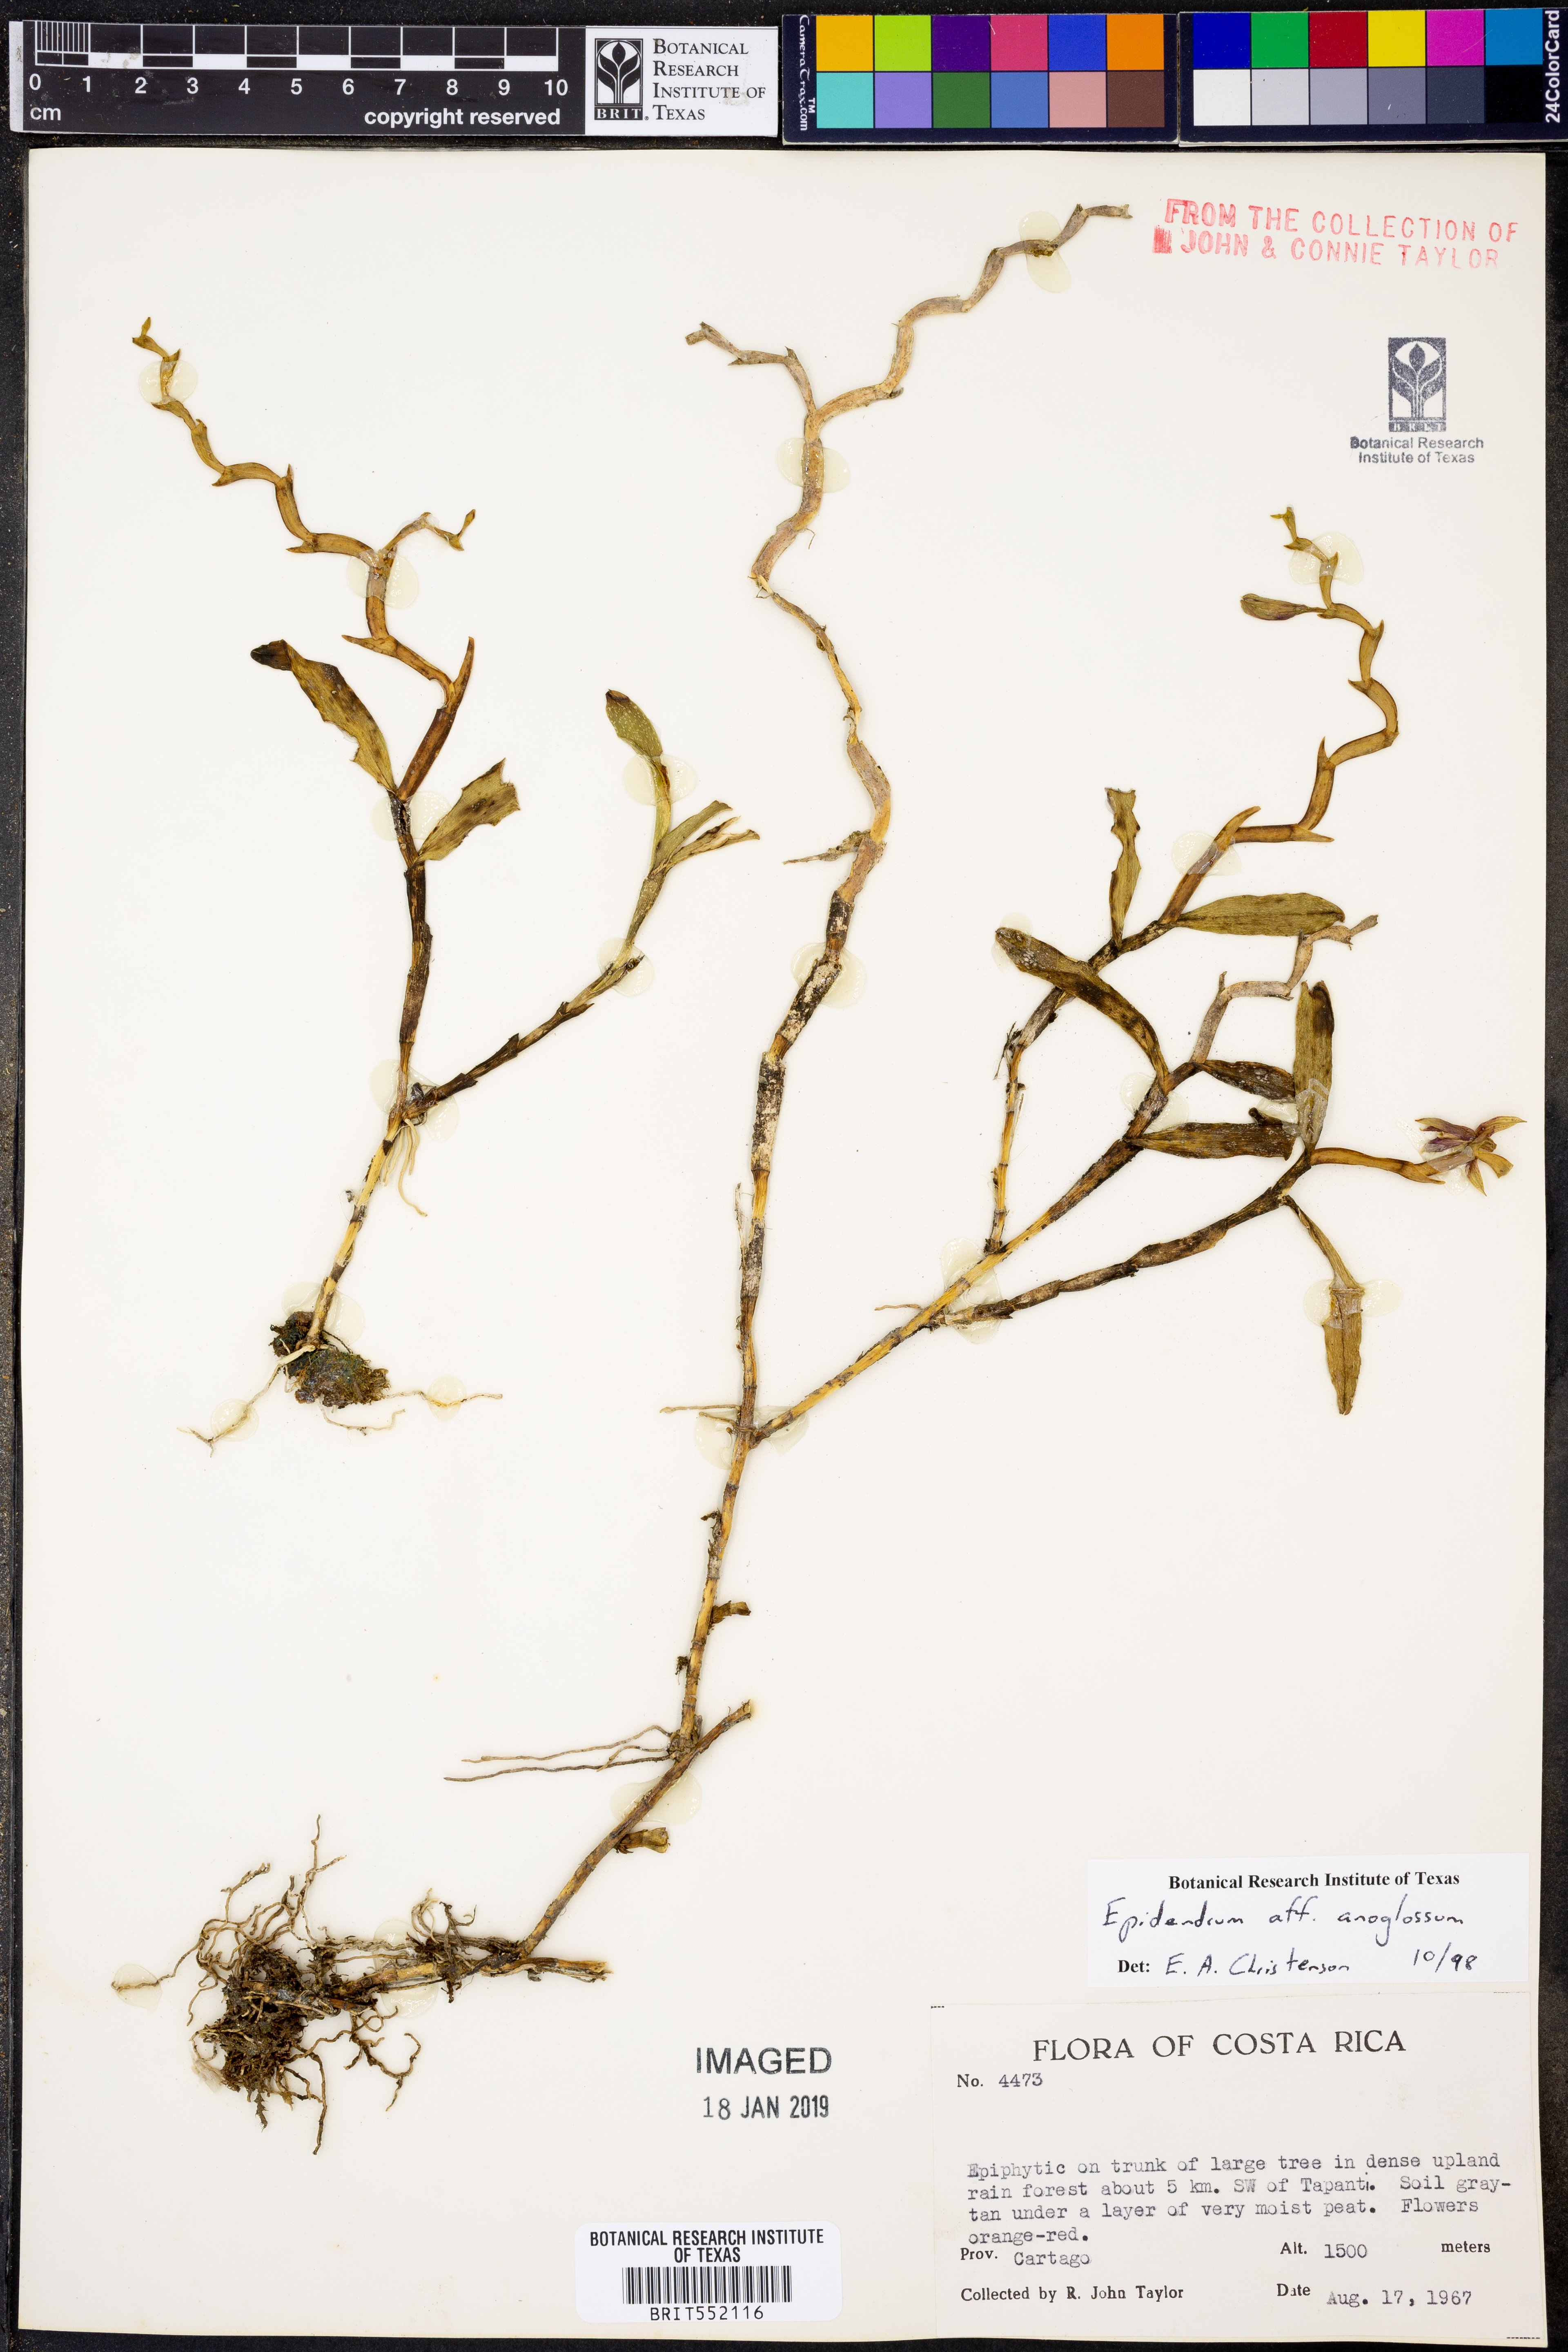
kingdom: Plantae
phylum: Tracheophyta
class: Liliopsida
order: Asparagales
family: Orchidaceae
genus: Epidendrum
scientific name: Epidendrum anoglossum
